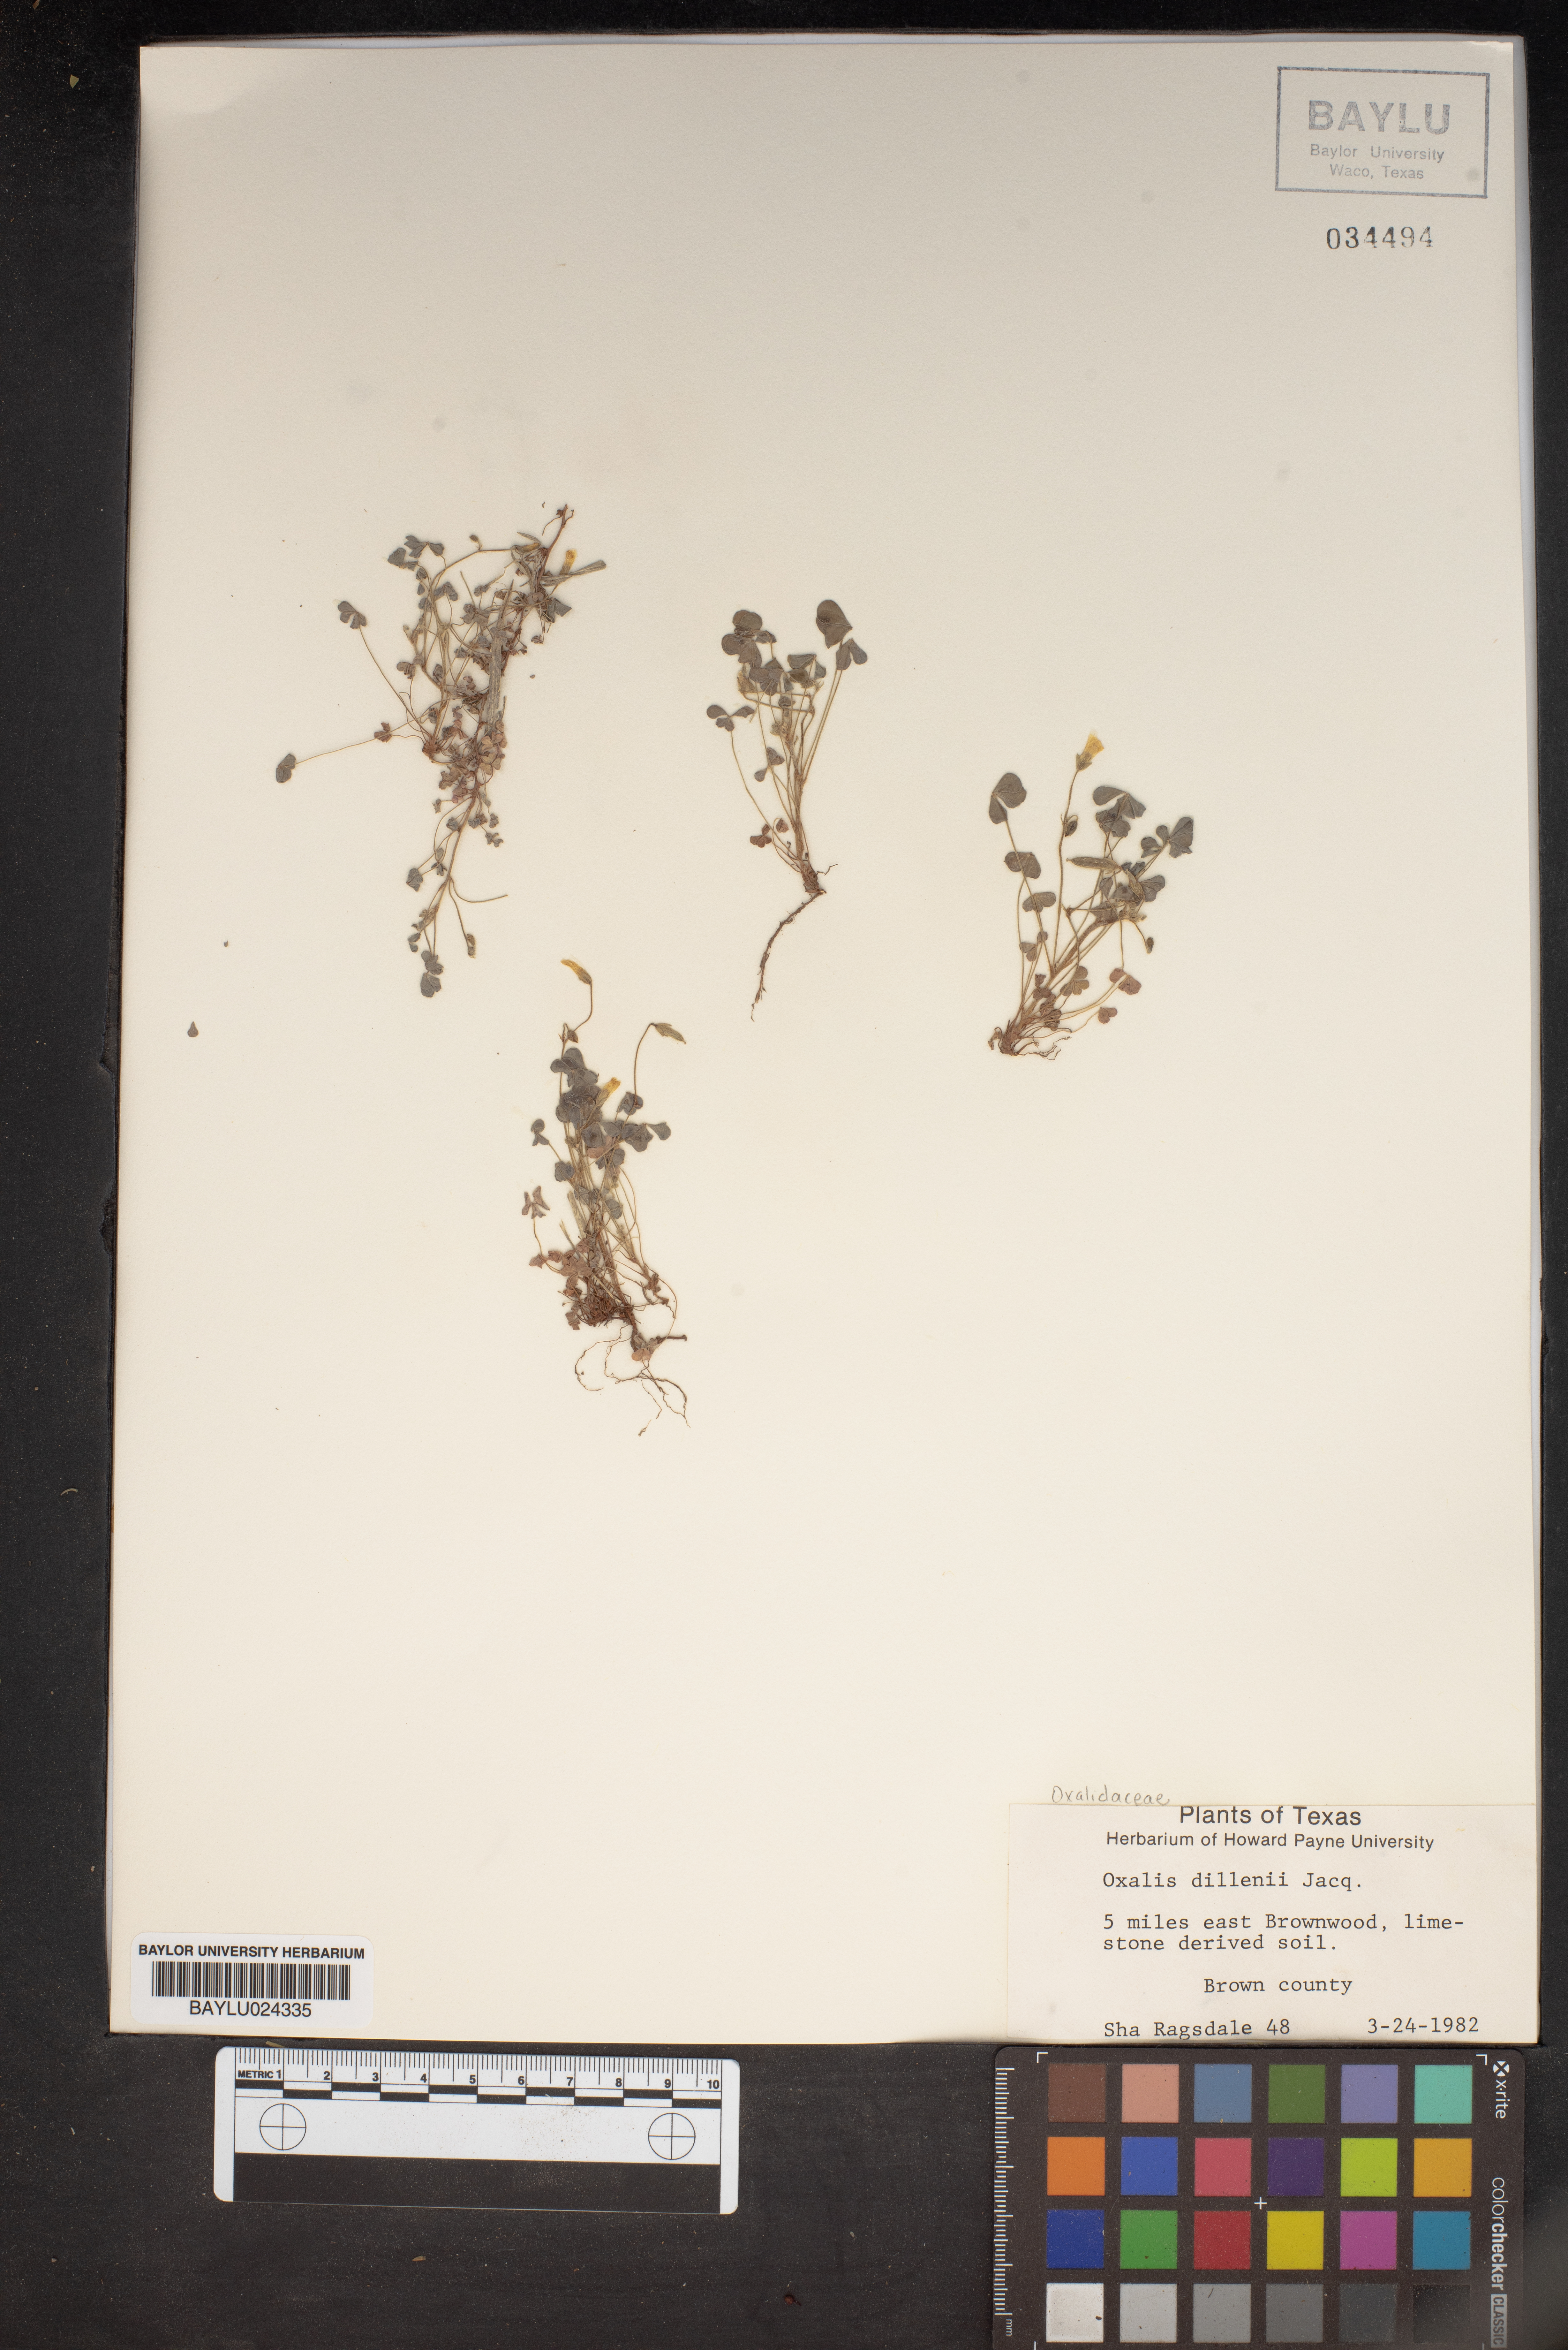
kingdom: Plantae
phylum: Tracheophyta
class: Magnoliopsida
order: Oxalidales
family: Oxalidaceae
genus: Oxalis
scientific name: Oxalis dillenii
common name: Sussex yellow-sorrel
